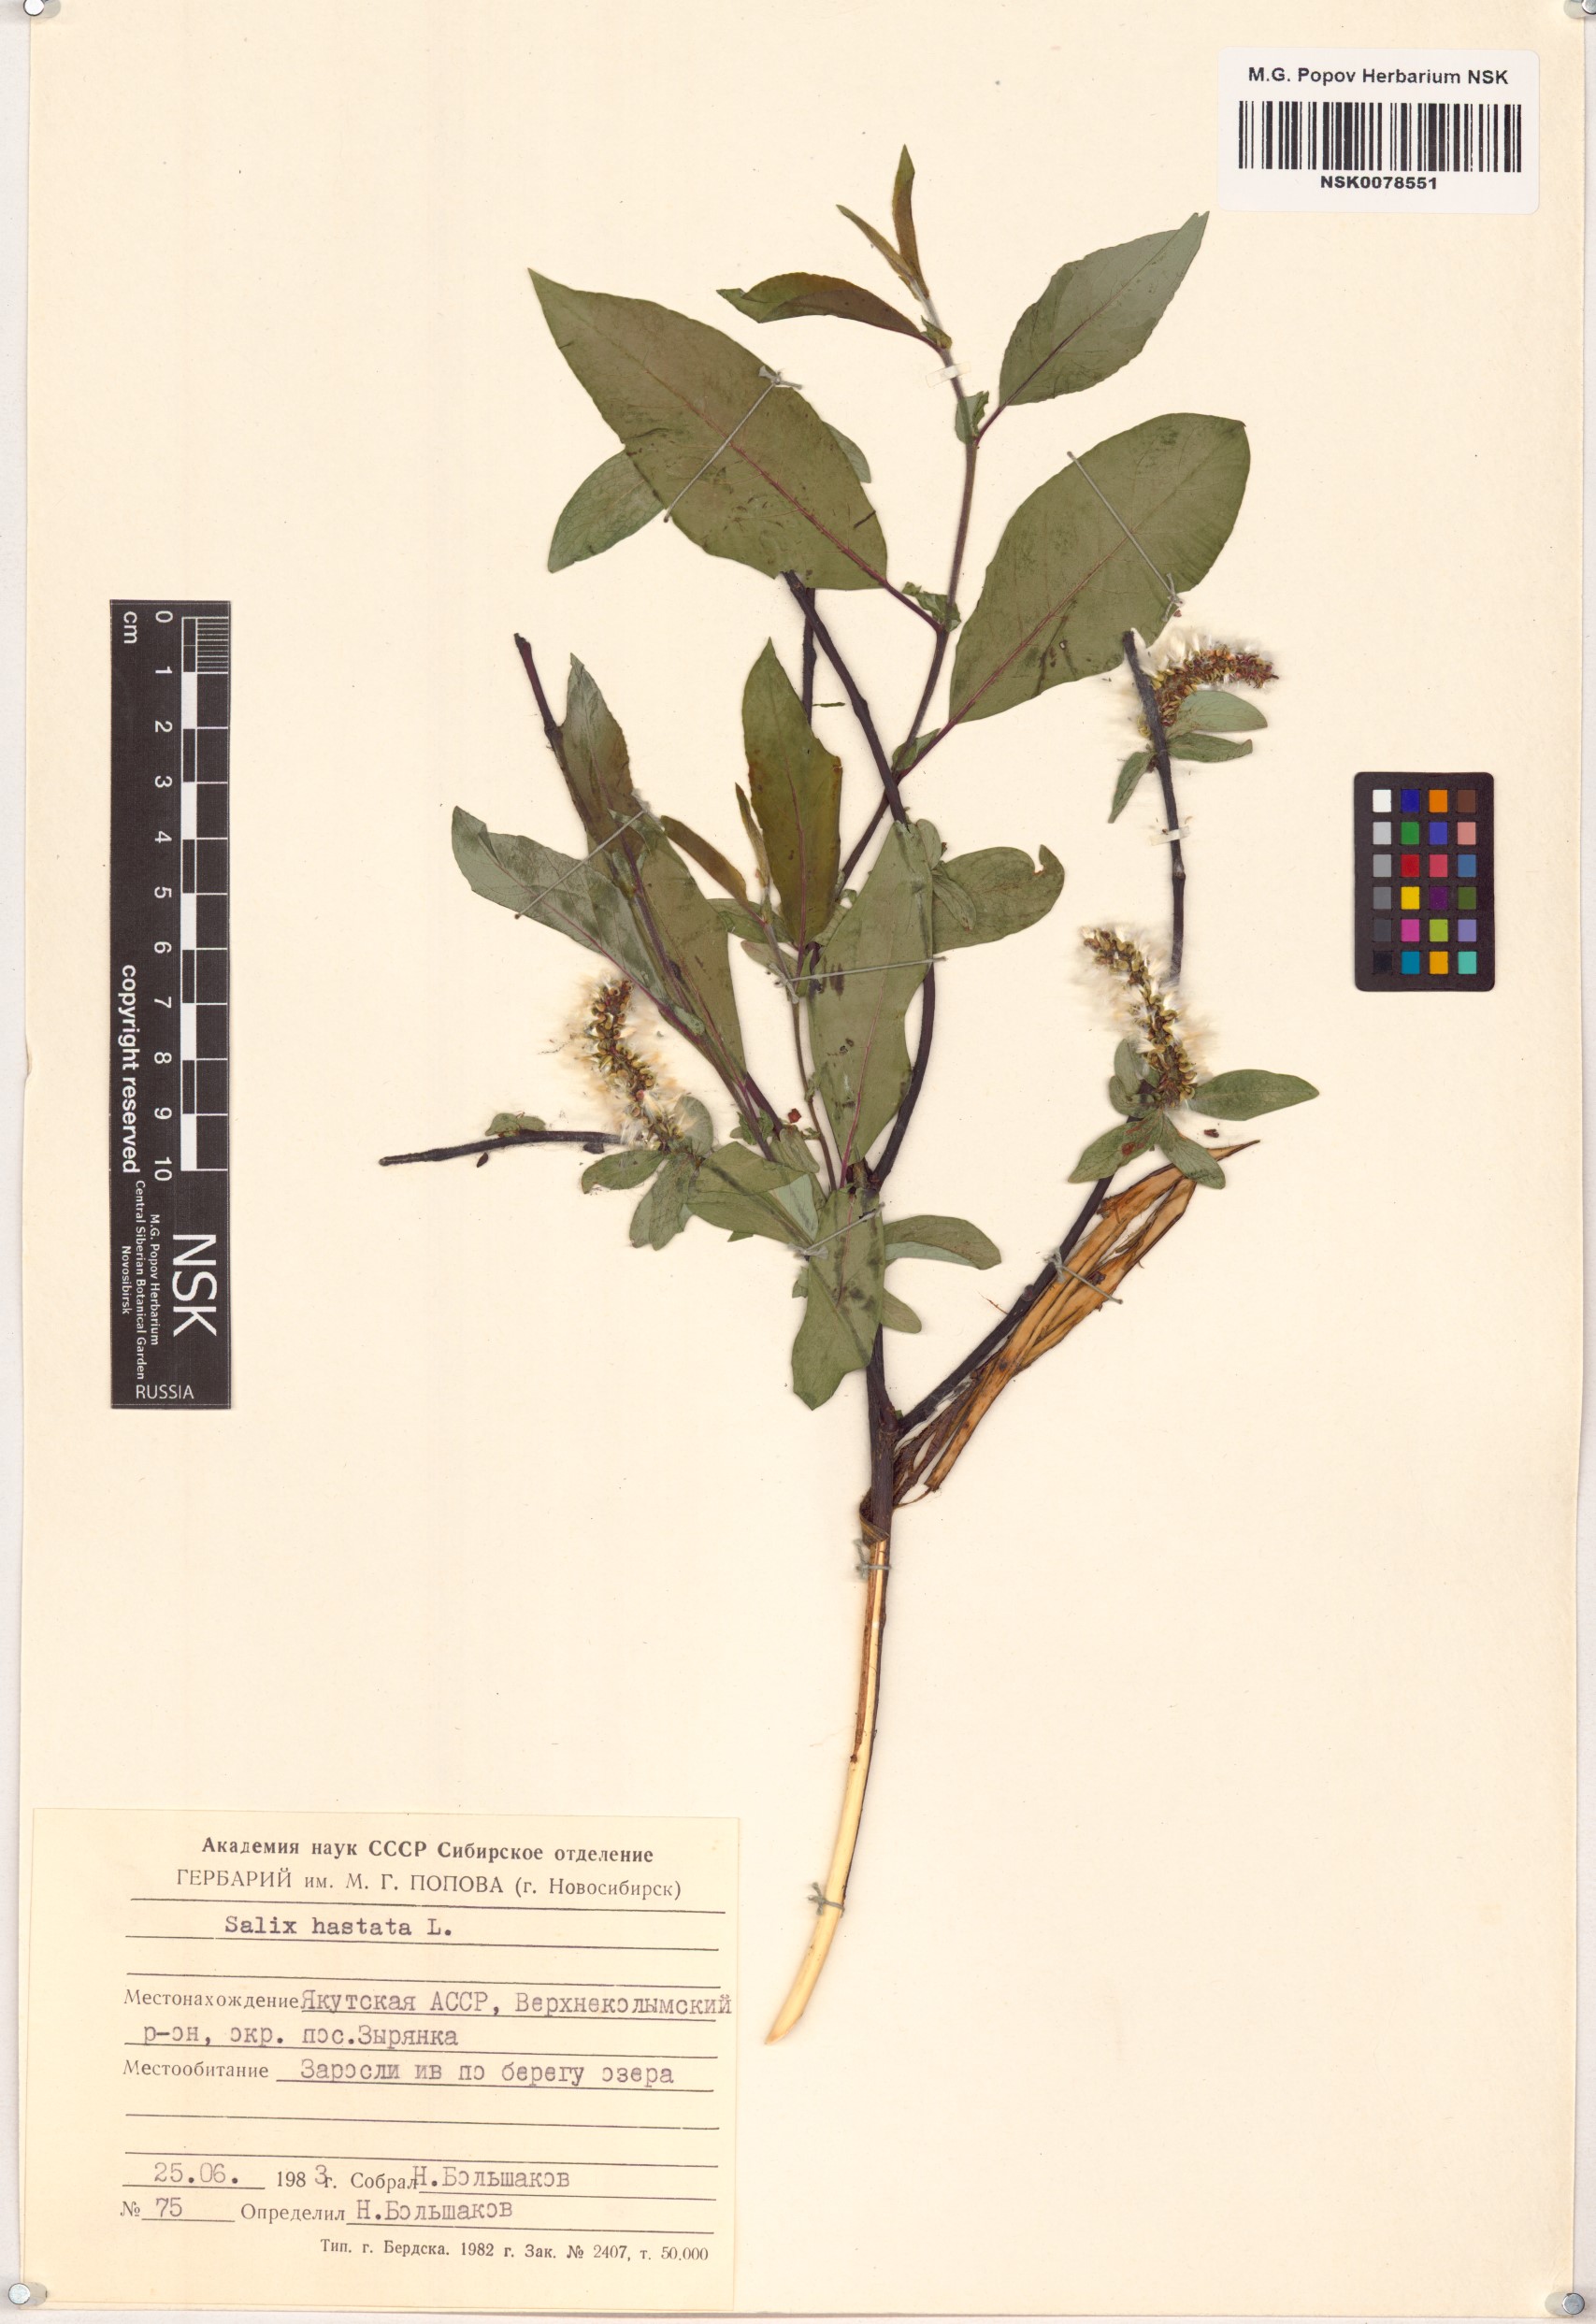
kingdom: Plantae
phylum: Tracheophyta
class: Magnoliopsida
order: Malpighiales
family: Salicaceae
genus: Salix
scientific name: Salix hastata
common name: Halberd willow
